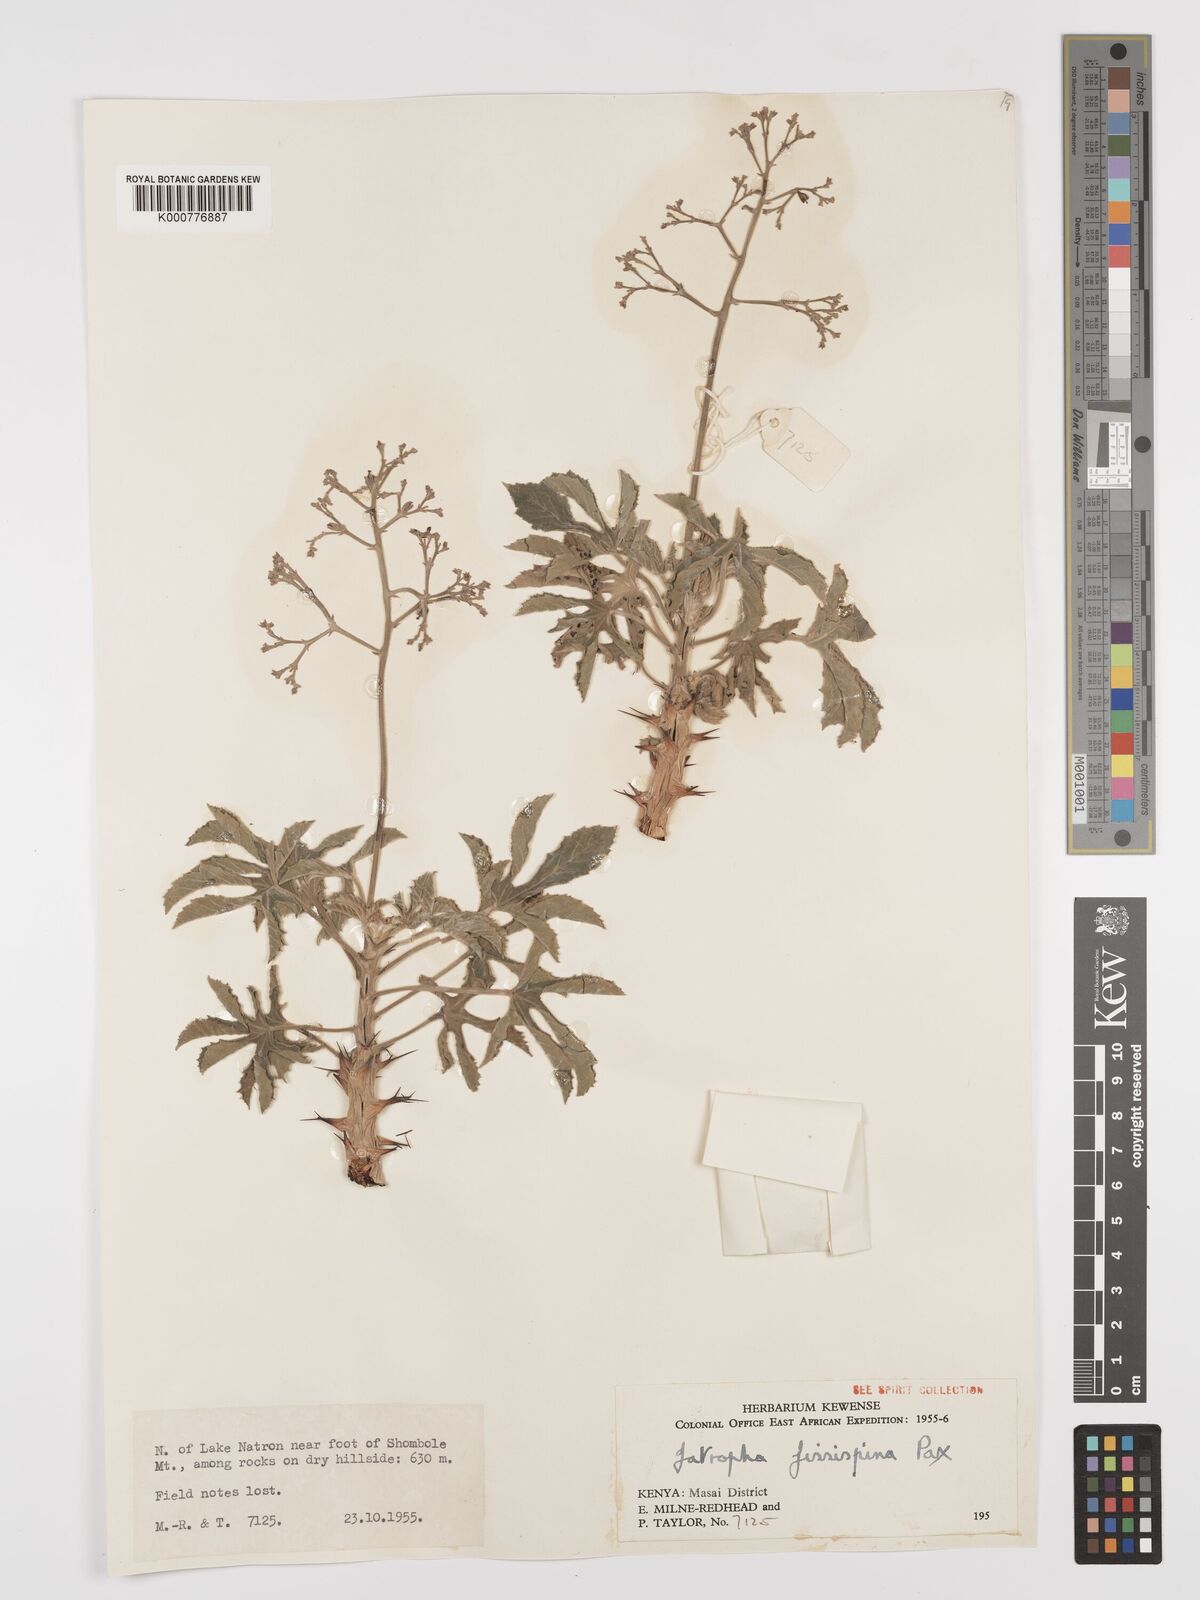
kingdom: Plantae
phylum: Tracheophyta
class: Magnoliopsida
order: Malpighiales
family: Euphorbiaceae
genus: Jatropha
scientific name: Jatropha ellenbeckii
